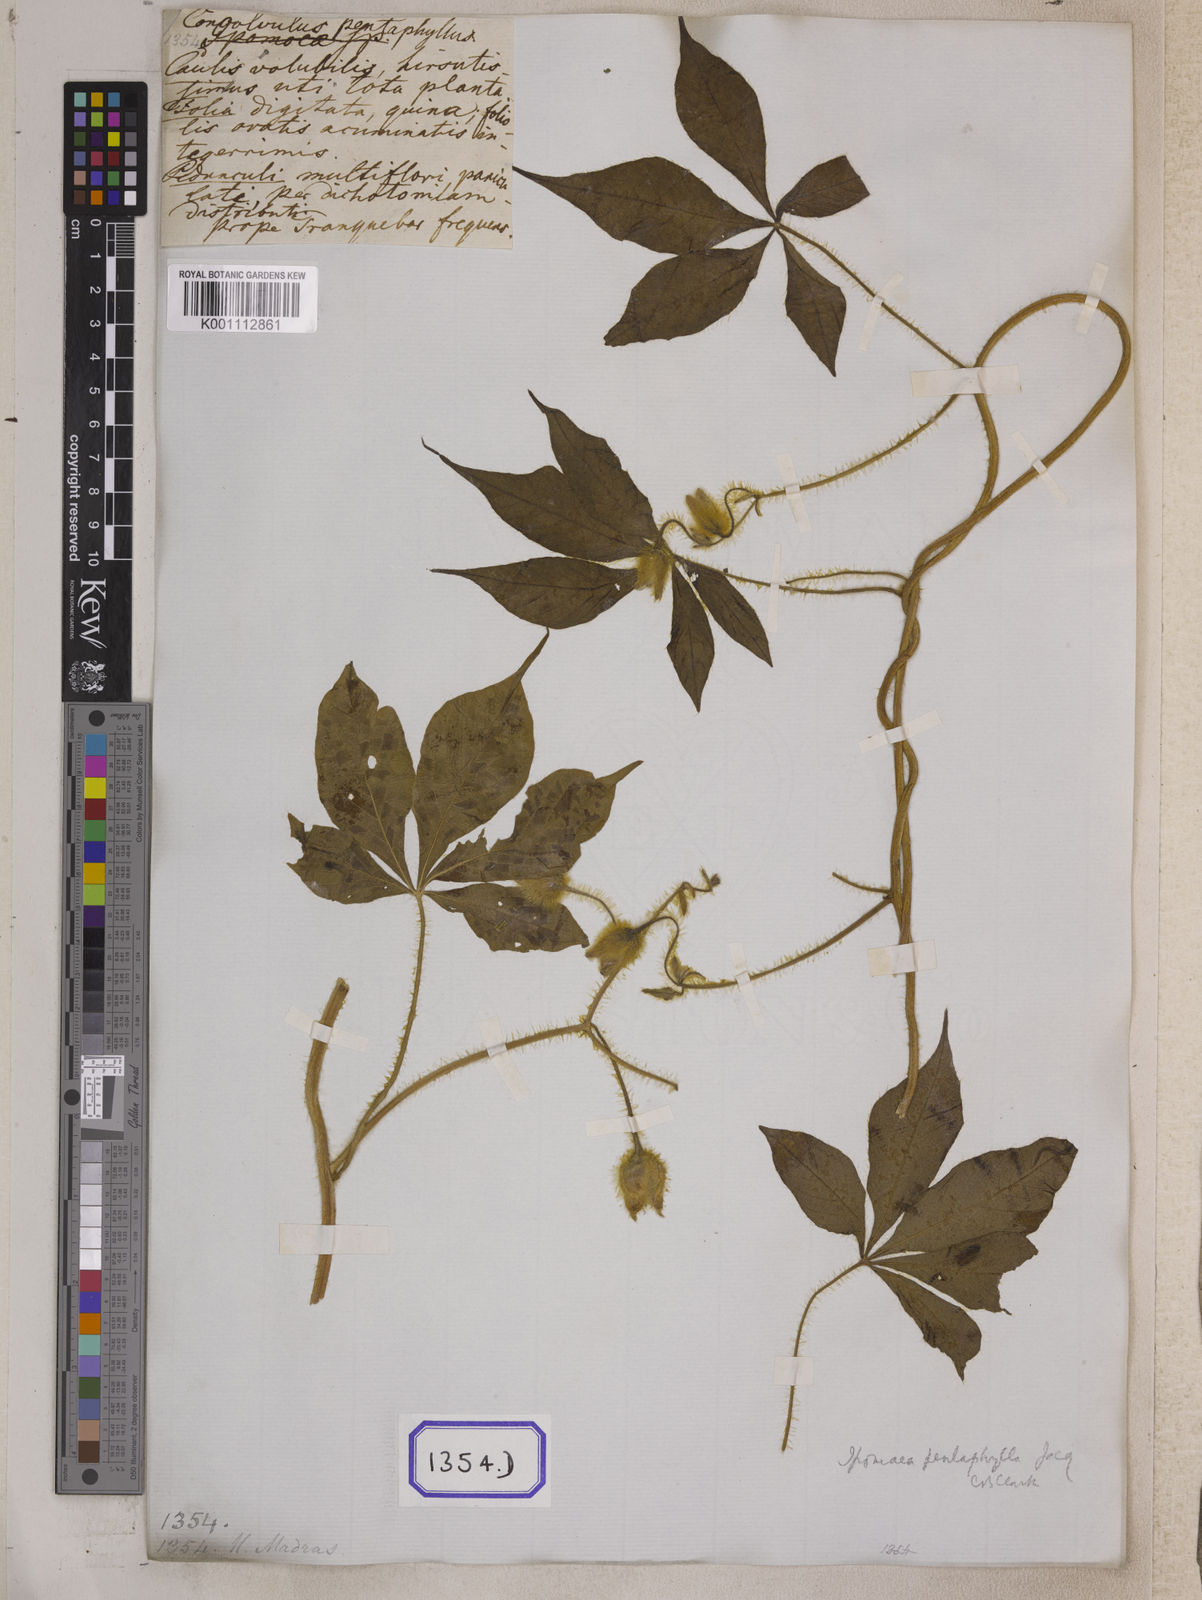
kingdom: Plantae
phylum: Tracheophyta
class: Magnoliopsida
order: Solanales
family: Convolvulaceae
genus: Convolvulus
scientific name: Convolvulus
